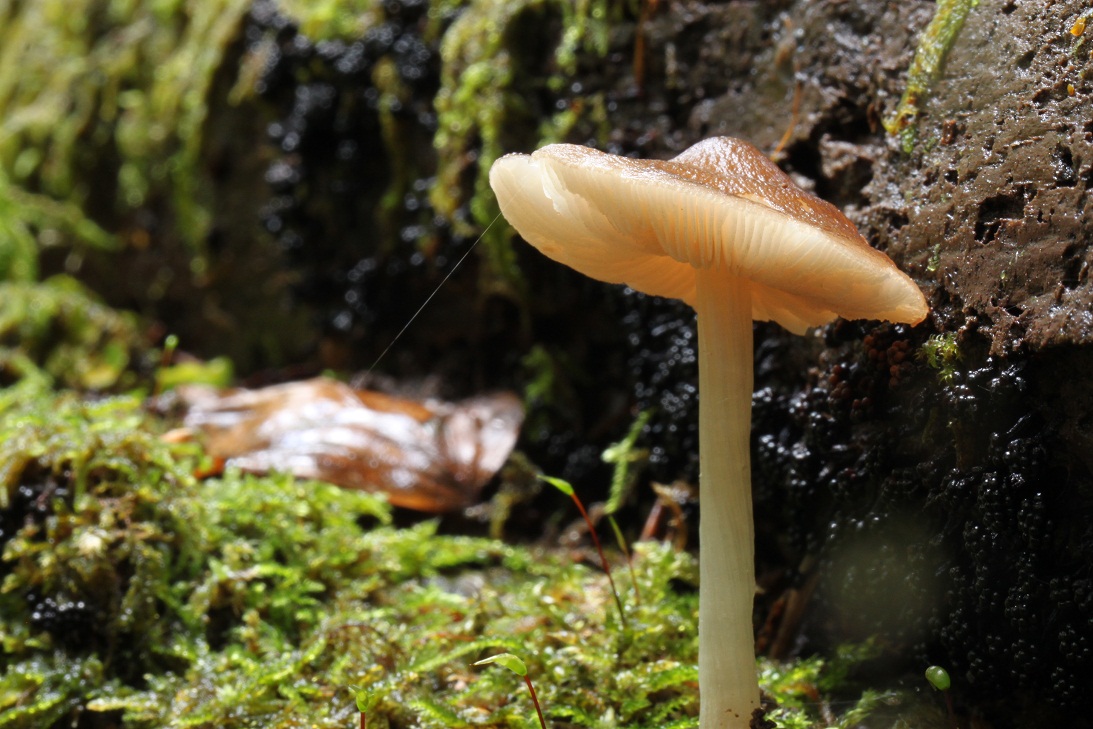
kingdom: Fungi
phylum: Basidiomycota
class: Agaricomycetes
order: Agaricales
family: Pluteaceae
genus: Pluteus
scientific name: Pluteus phlebophorus
